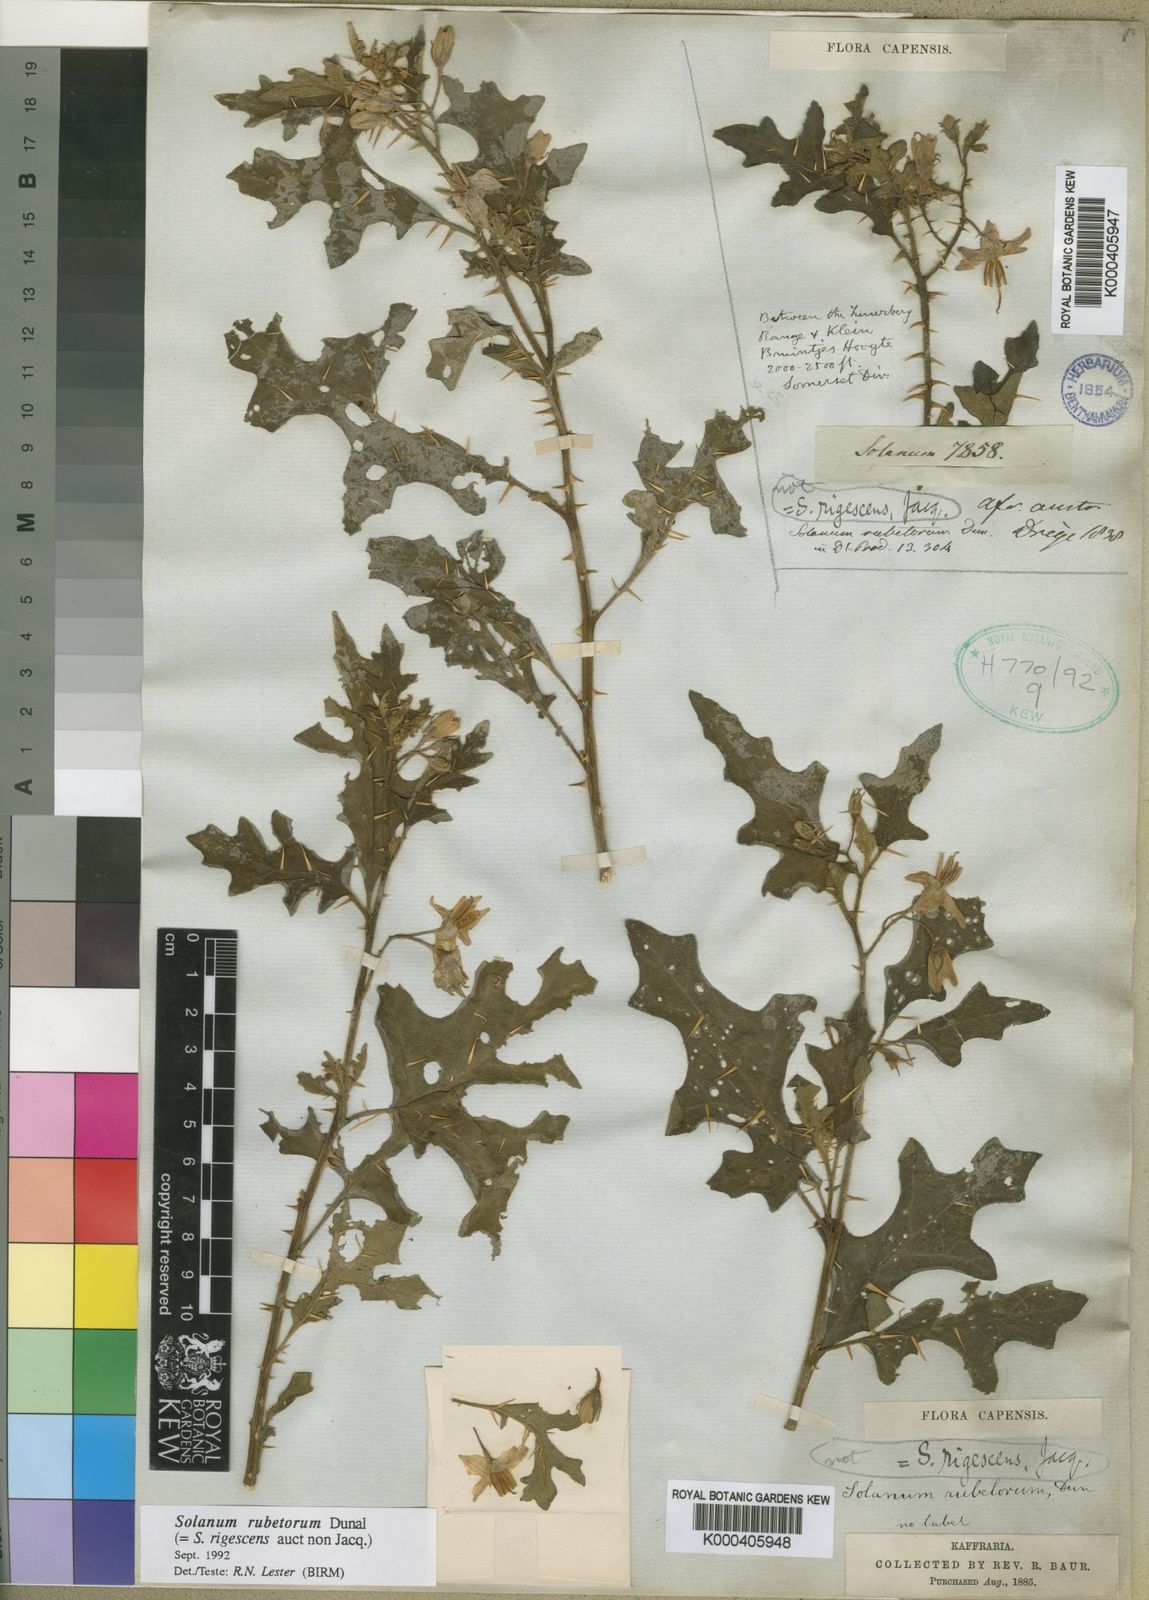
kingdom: Plantae
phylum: Tracheophyta
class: Magnoliopsida
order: Solanales
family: Solanaceae
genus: Solanum
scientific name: Solanum rubetorum
